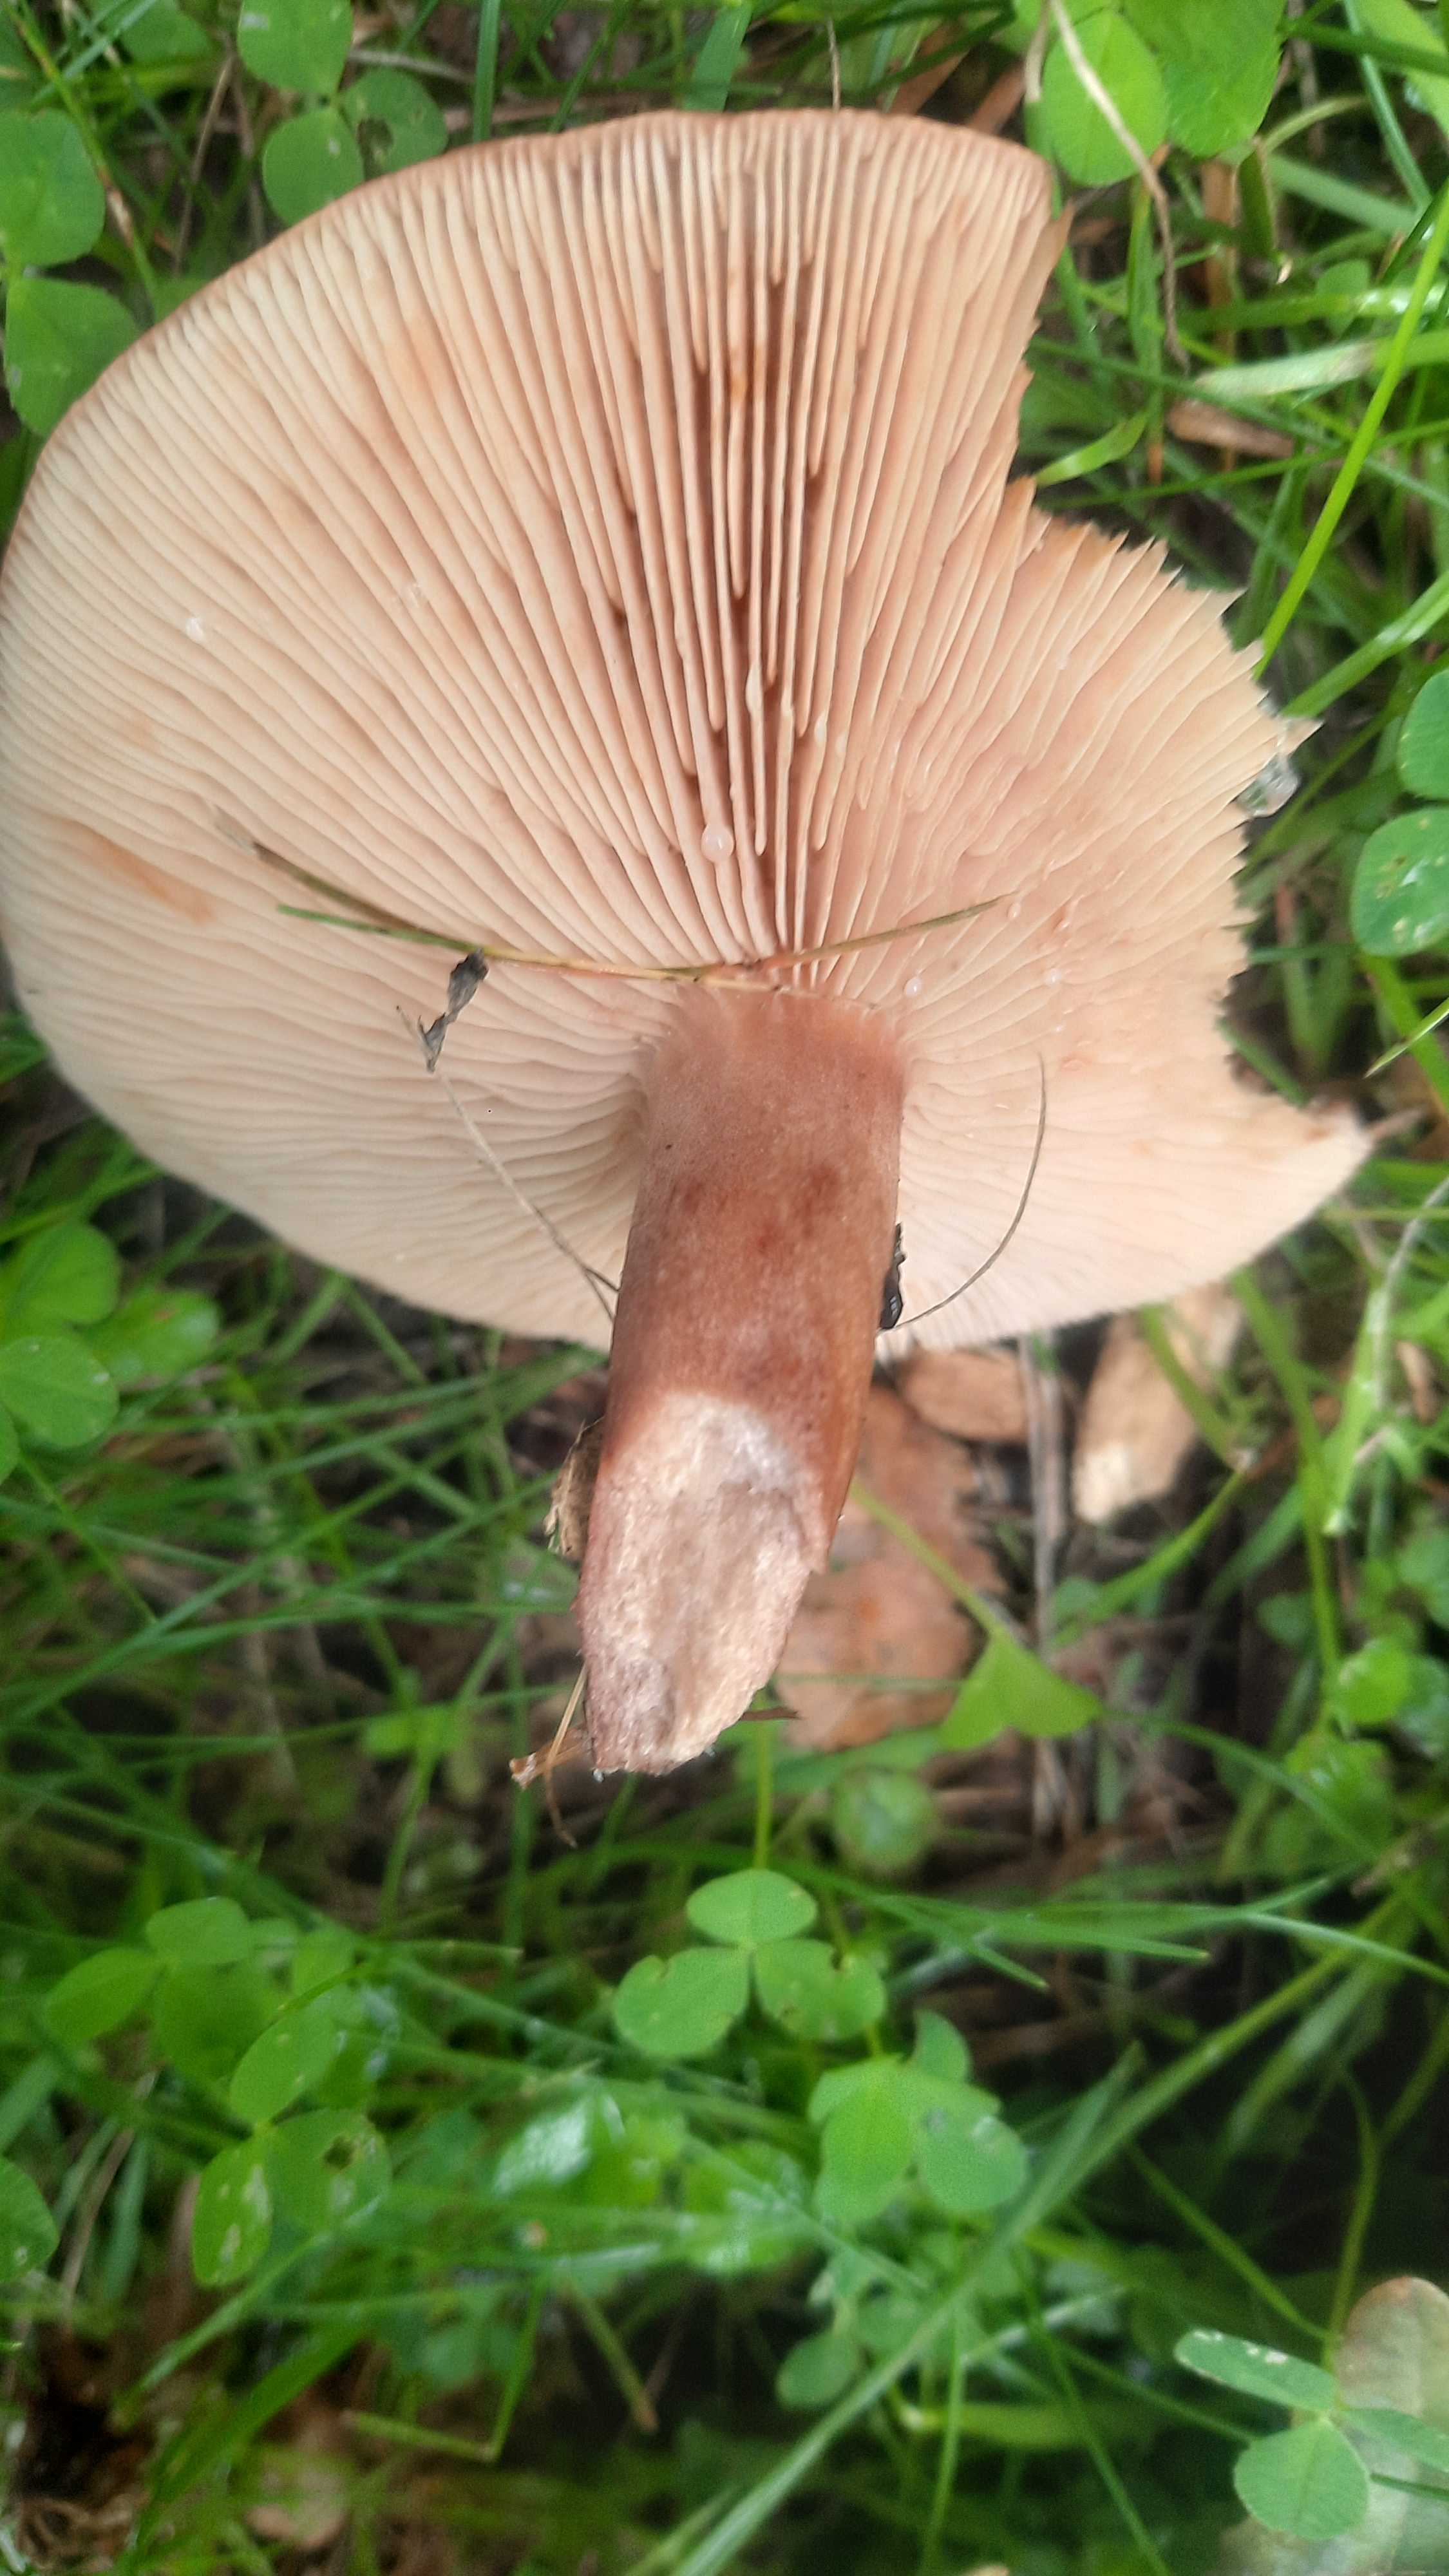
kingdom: Fungi
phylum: Basidiomycota
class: Agaricomycetes
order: Russulales
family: Russulaceae
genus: Lactarius
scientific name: Lactarius
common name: mælkehat
